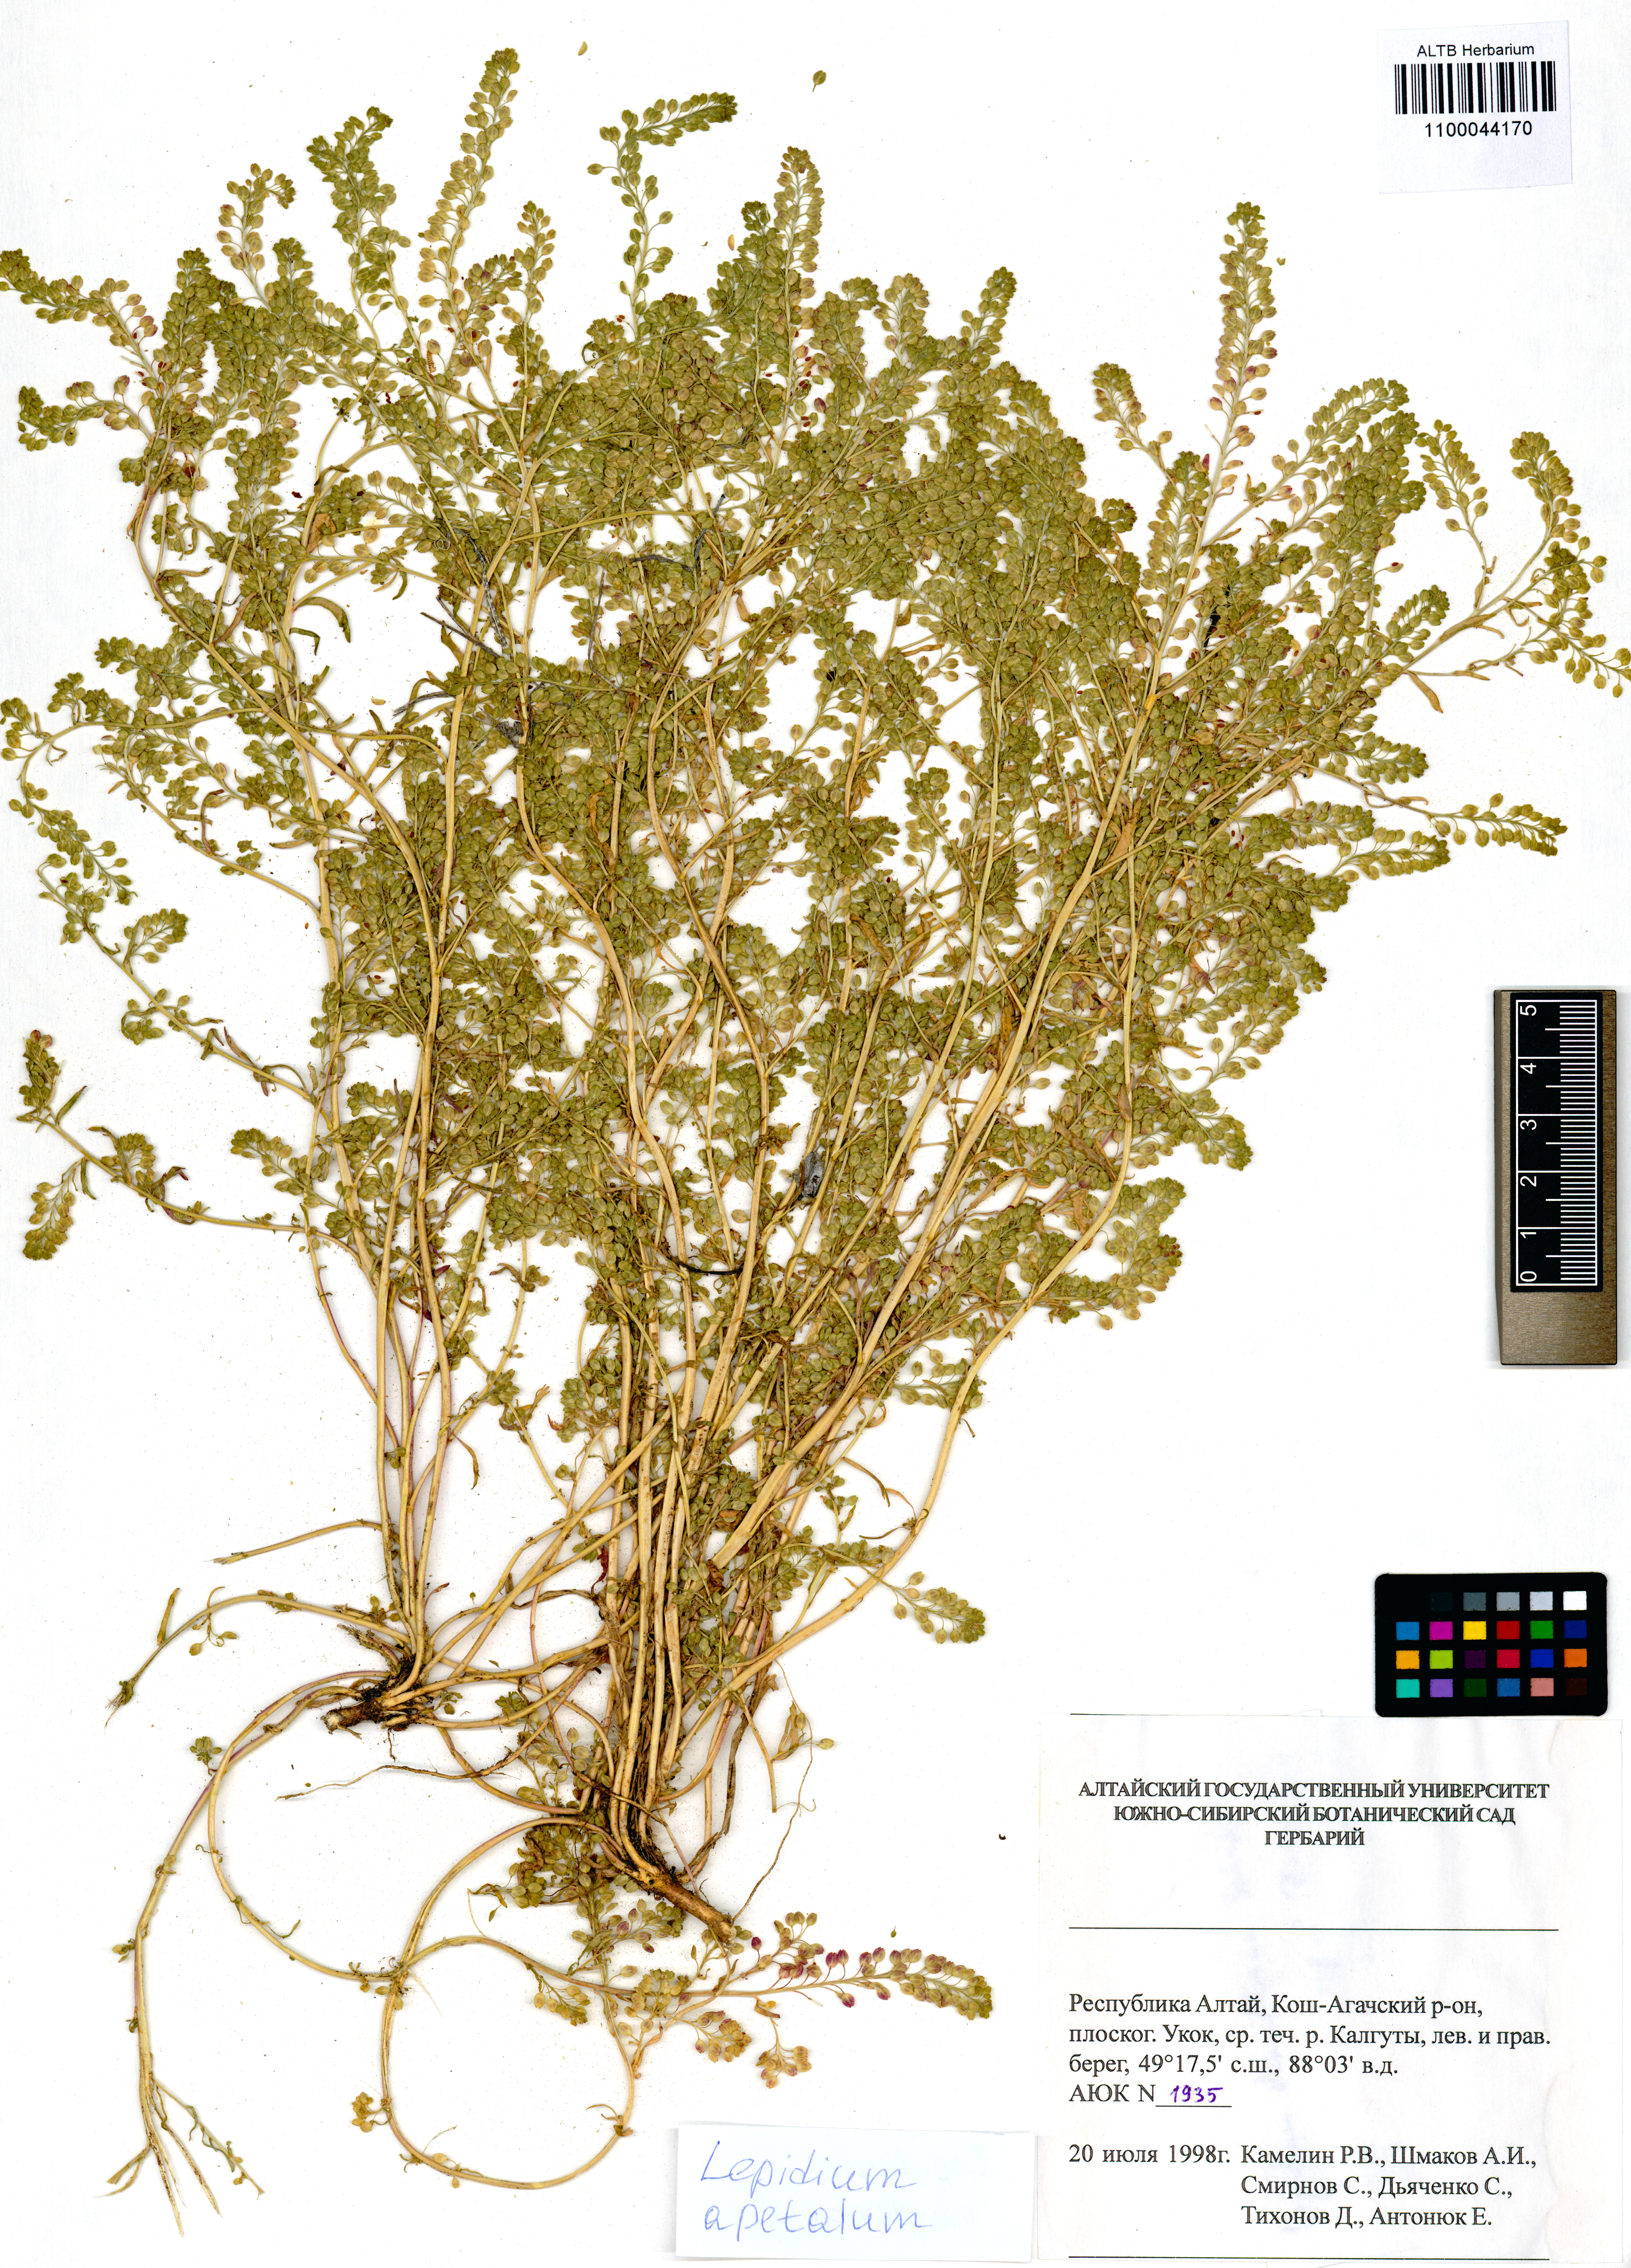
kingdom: Plantae
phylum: Tracheophyta
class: Magnoliopsida
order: Brassicales
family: Brassicaceae
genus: Lepidium
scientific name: Lepidium apetalum
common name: Pepperweed
